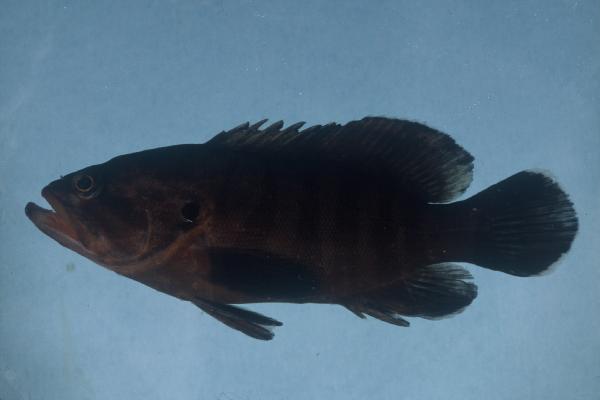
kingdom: Animalia
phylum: Chordata
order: Perciformes
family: Serranidae
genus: Cephalopholis
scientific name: Cephalopholis boenak
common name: Chocolate hind
